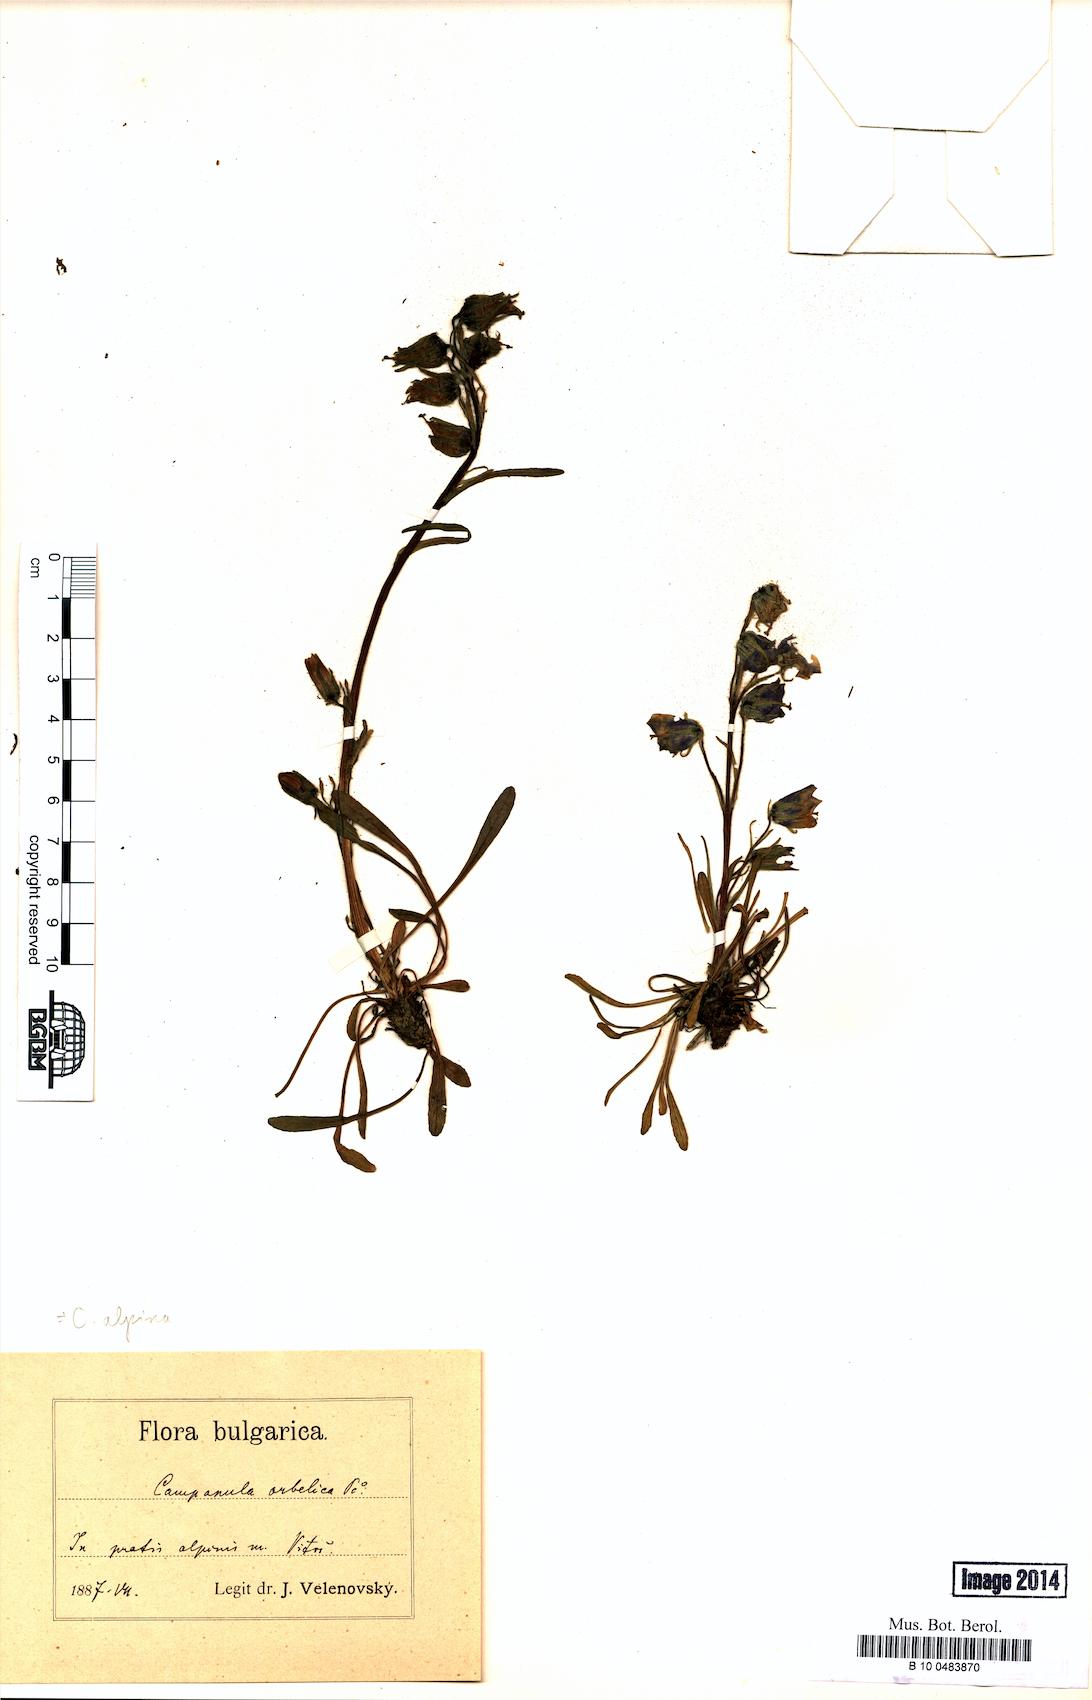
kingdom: Plantae
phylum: Tracheophyta
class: Magnoliopsida
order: Asterales
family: Campanulaceae
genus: Campanula
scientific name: Campanula alpina
